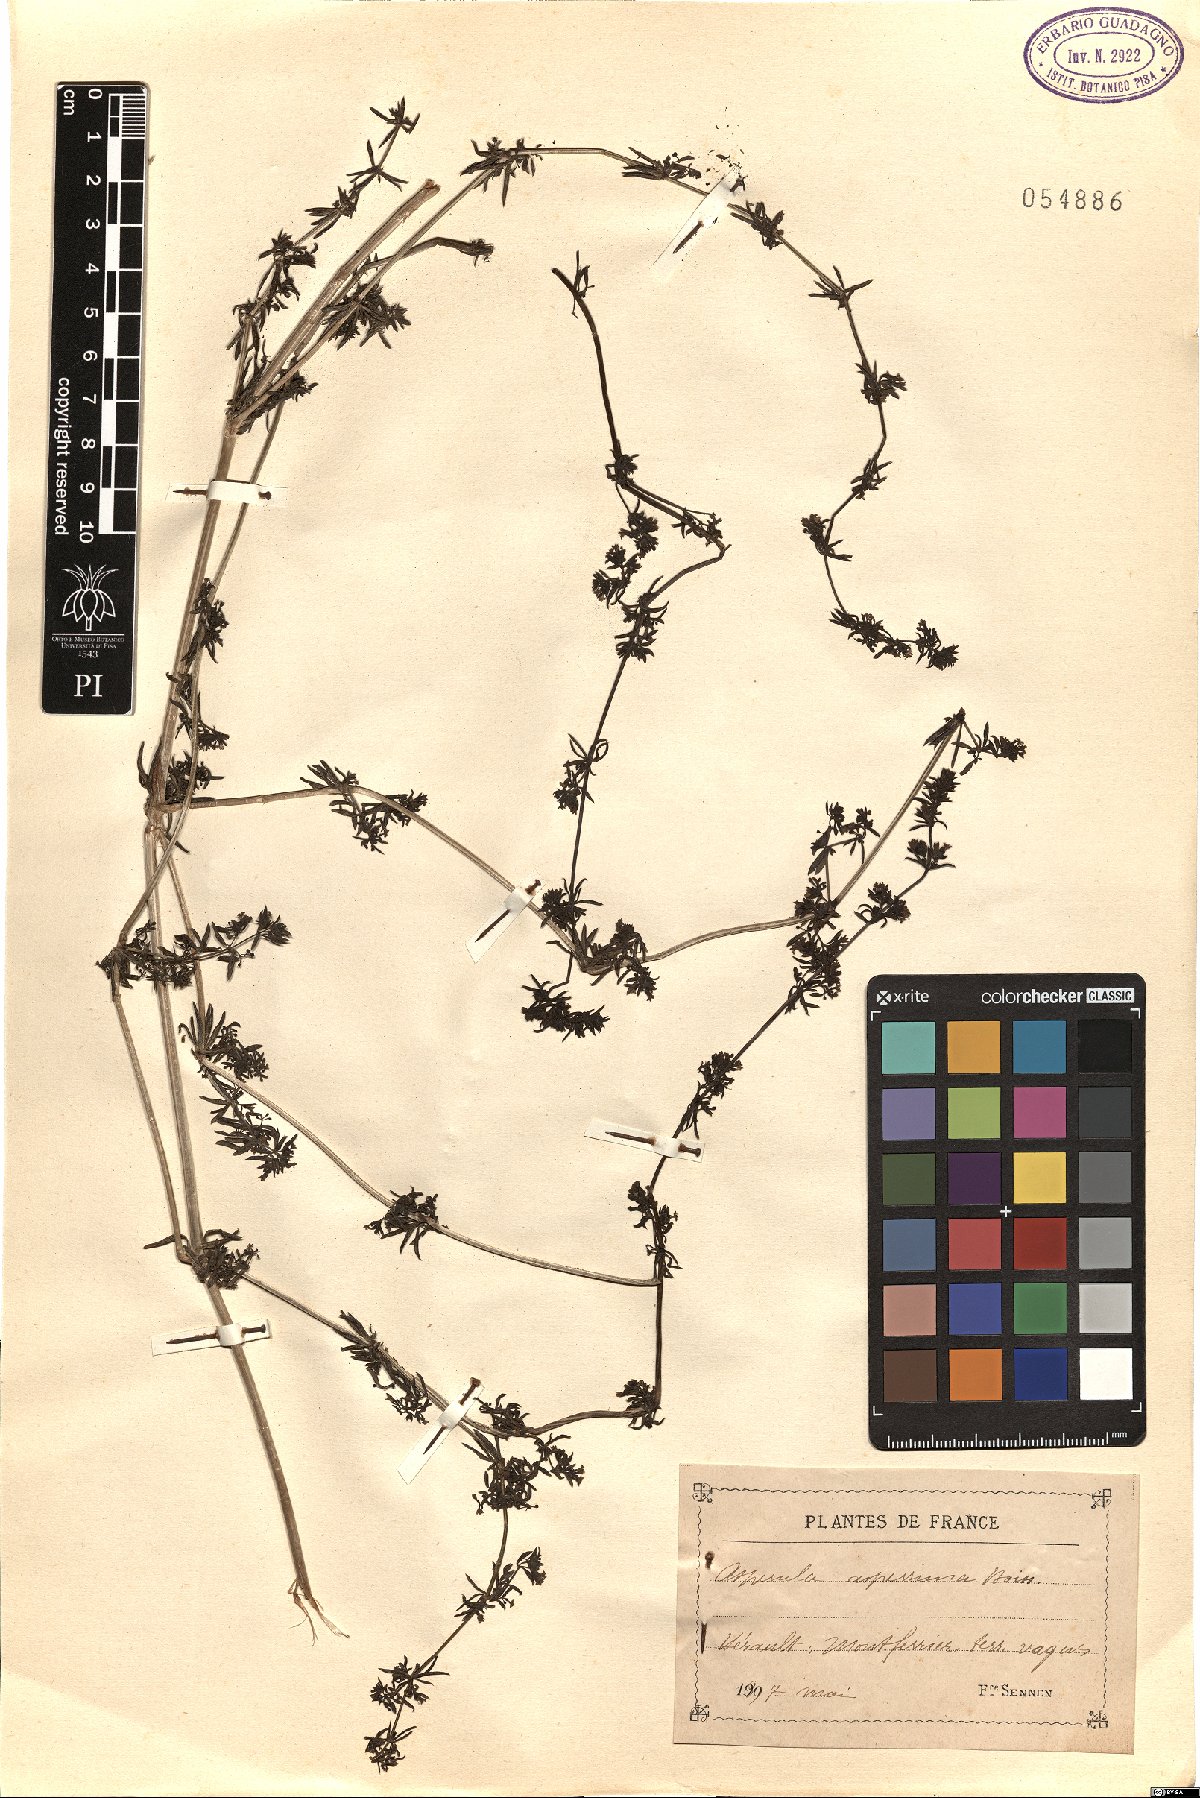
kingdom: Plantae
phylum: Tracheophyta
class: Magnoliopsida
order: Gentianales
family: Rubiaceae
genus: Galium
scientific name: Galium pierredmondii
